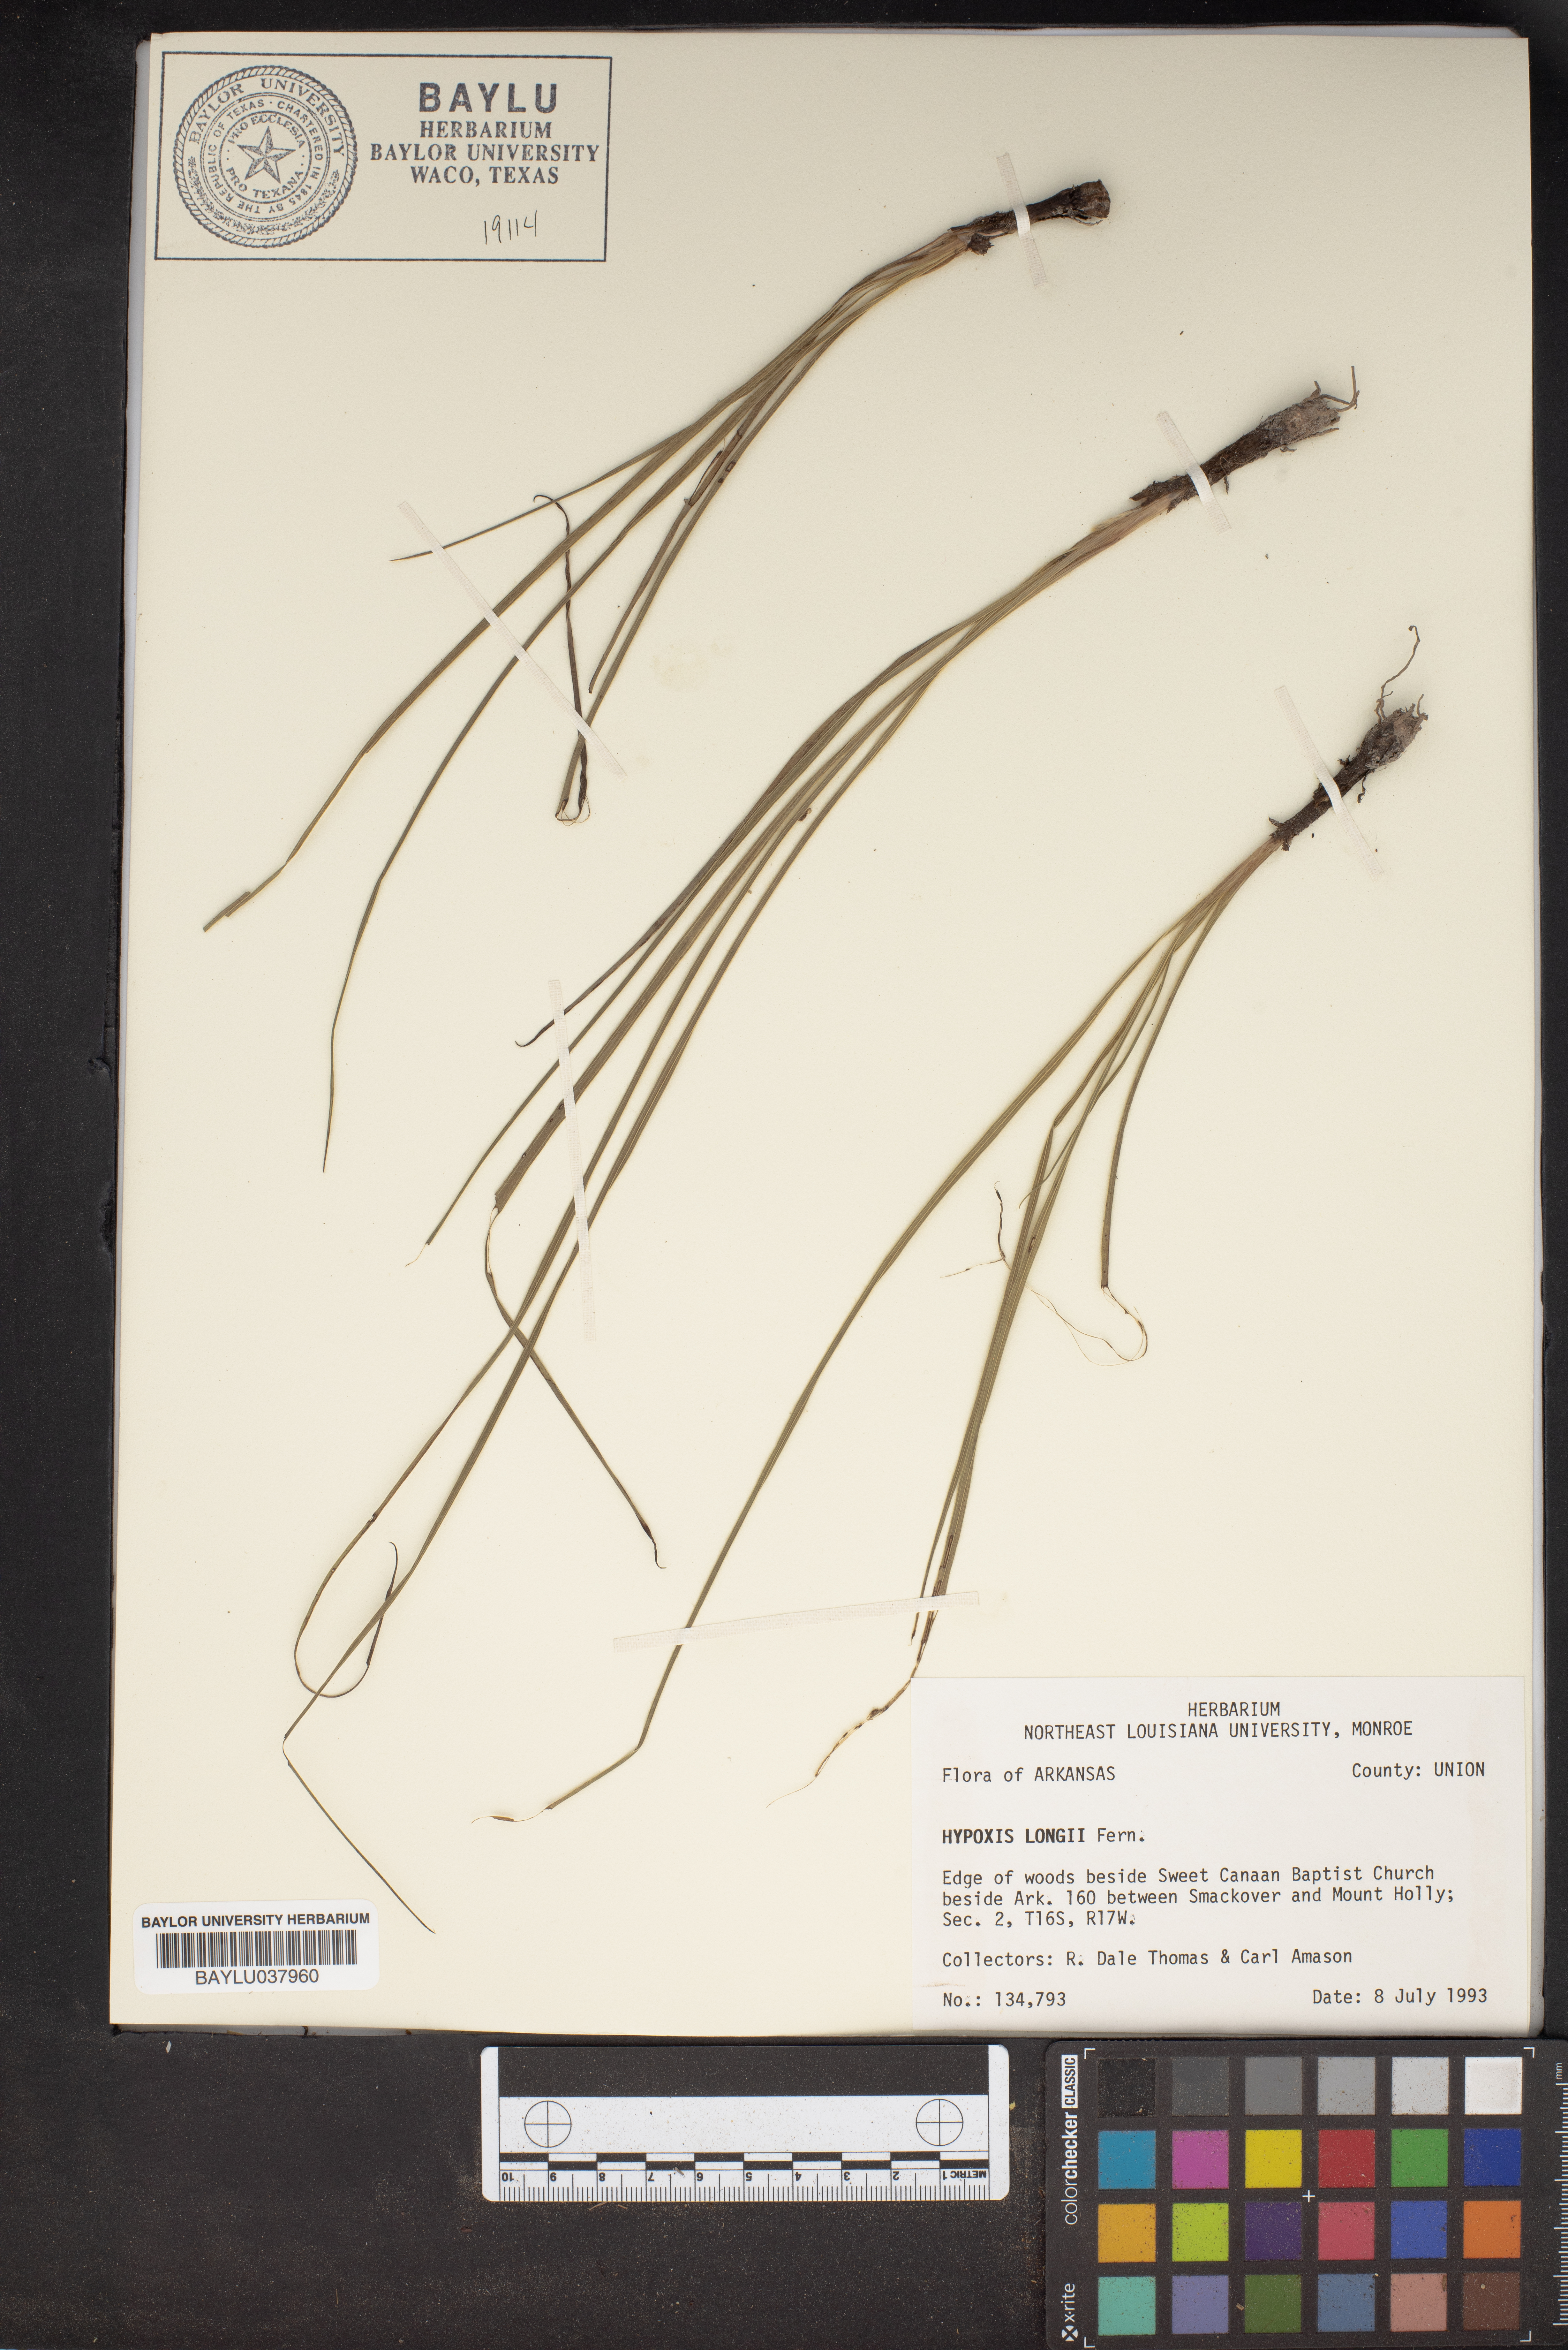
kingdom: Plantae
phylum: Tracheophyta
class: Liliopsida
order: Asparagales
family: Hypoxidaceae
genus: Hypoxis
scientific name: Hypoxis sessilis
